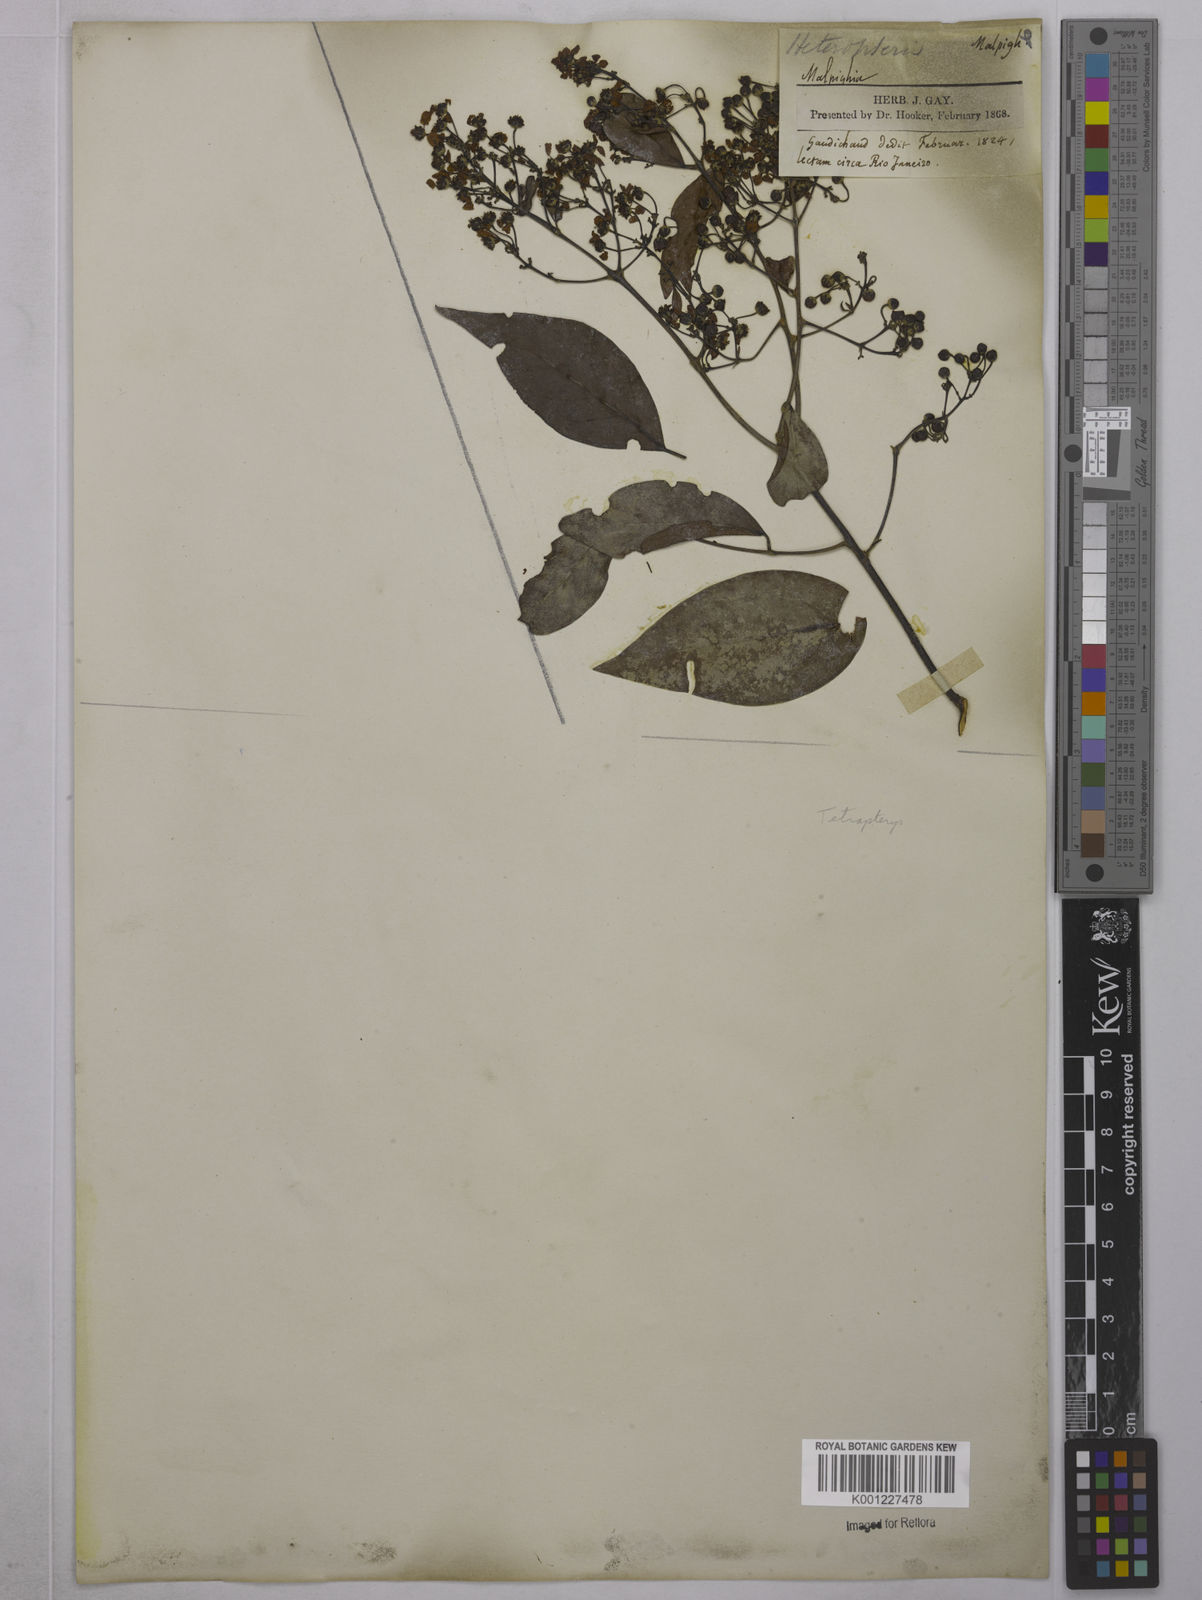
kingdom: Plantae
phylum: Tracheophyta
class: Magnoliopsida
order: Malpighiales
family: Malpighiaceae
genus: Tetrapterys
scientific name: Tetrapterys
